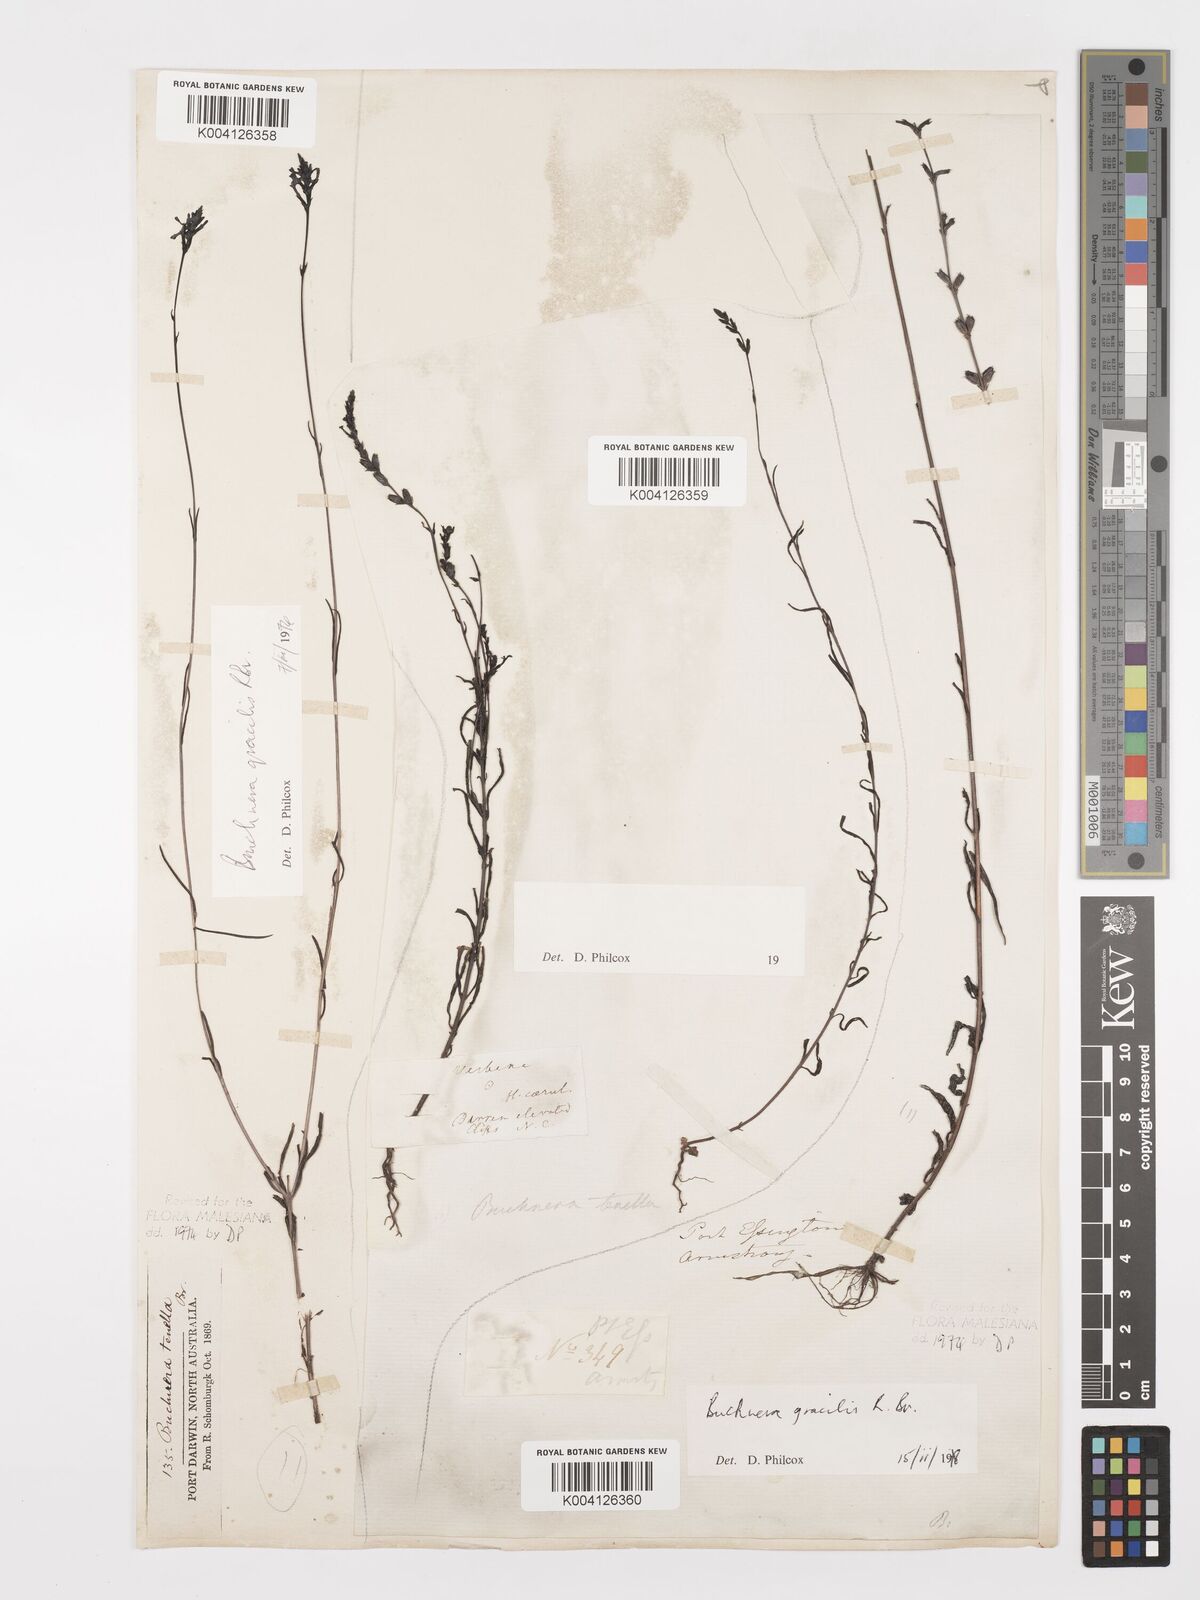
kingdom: Plantae
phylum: Tracheophyta
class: Magnoliopsida
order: Lamiales
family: Orobanchaceae
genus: Buchnera
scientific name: Buchnera gracilis
